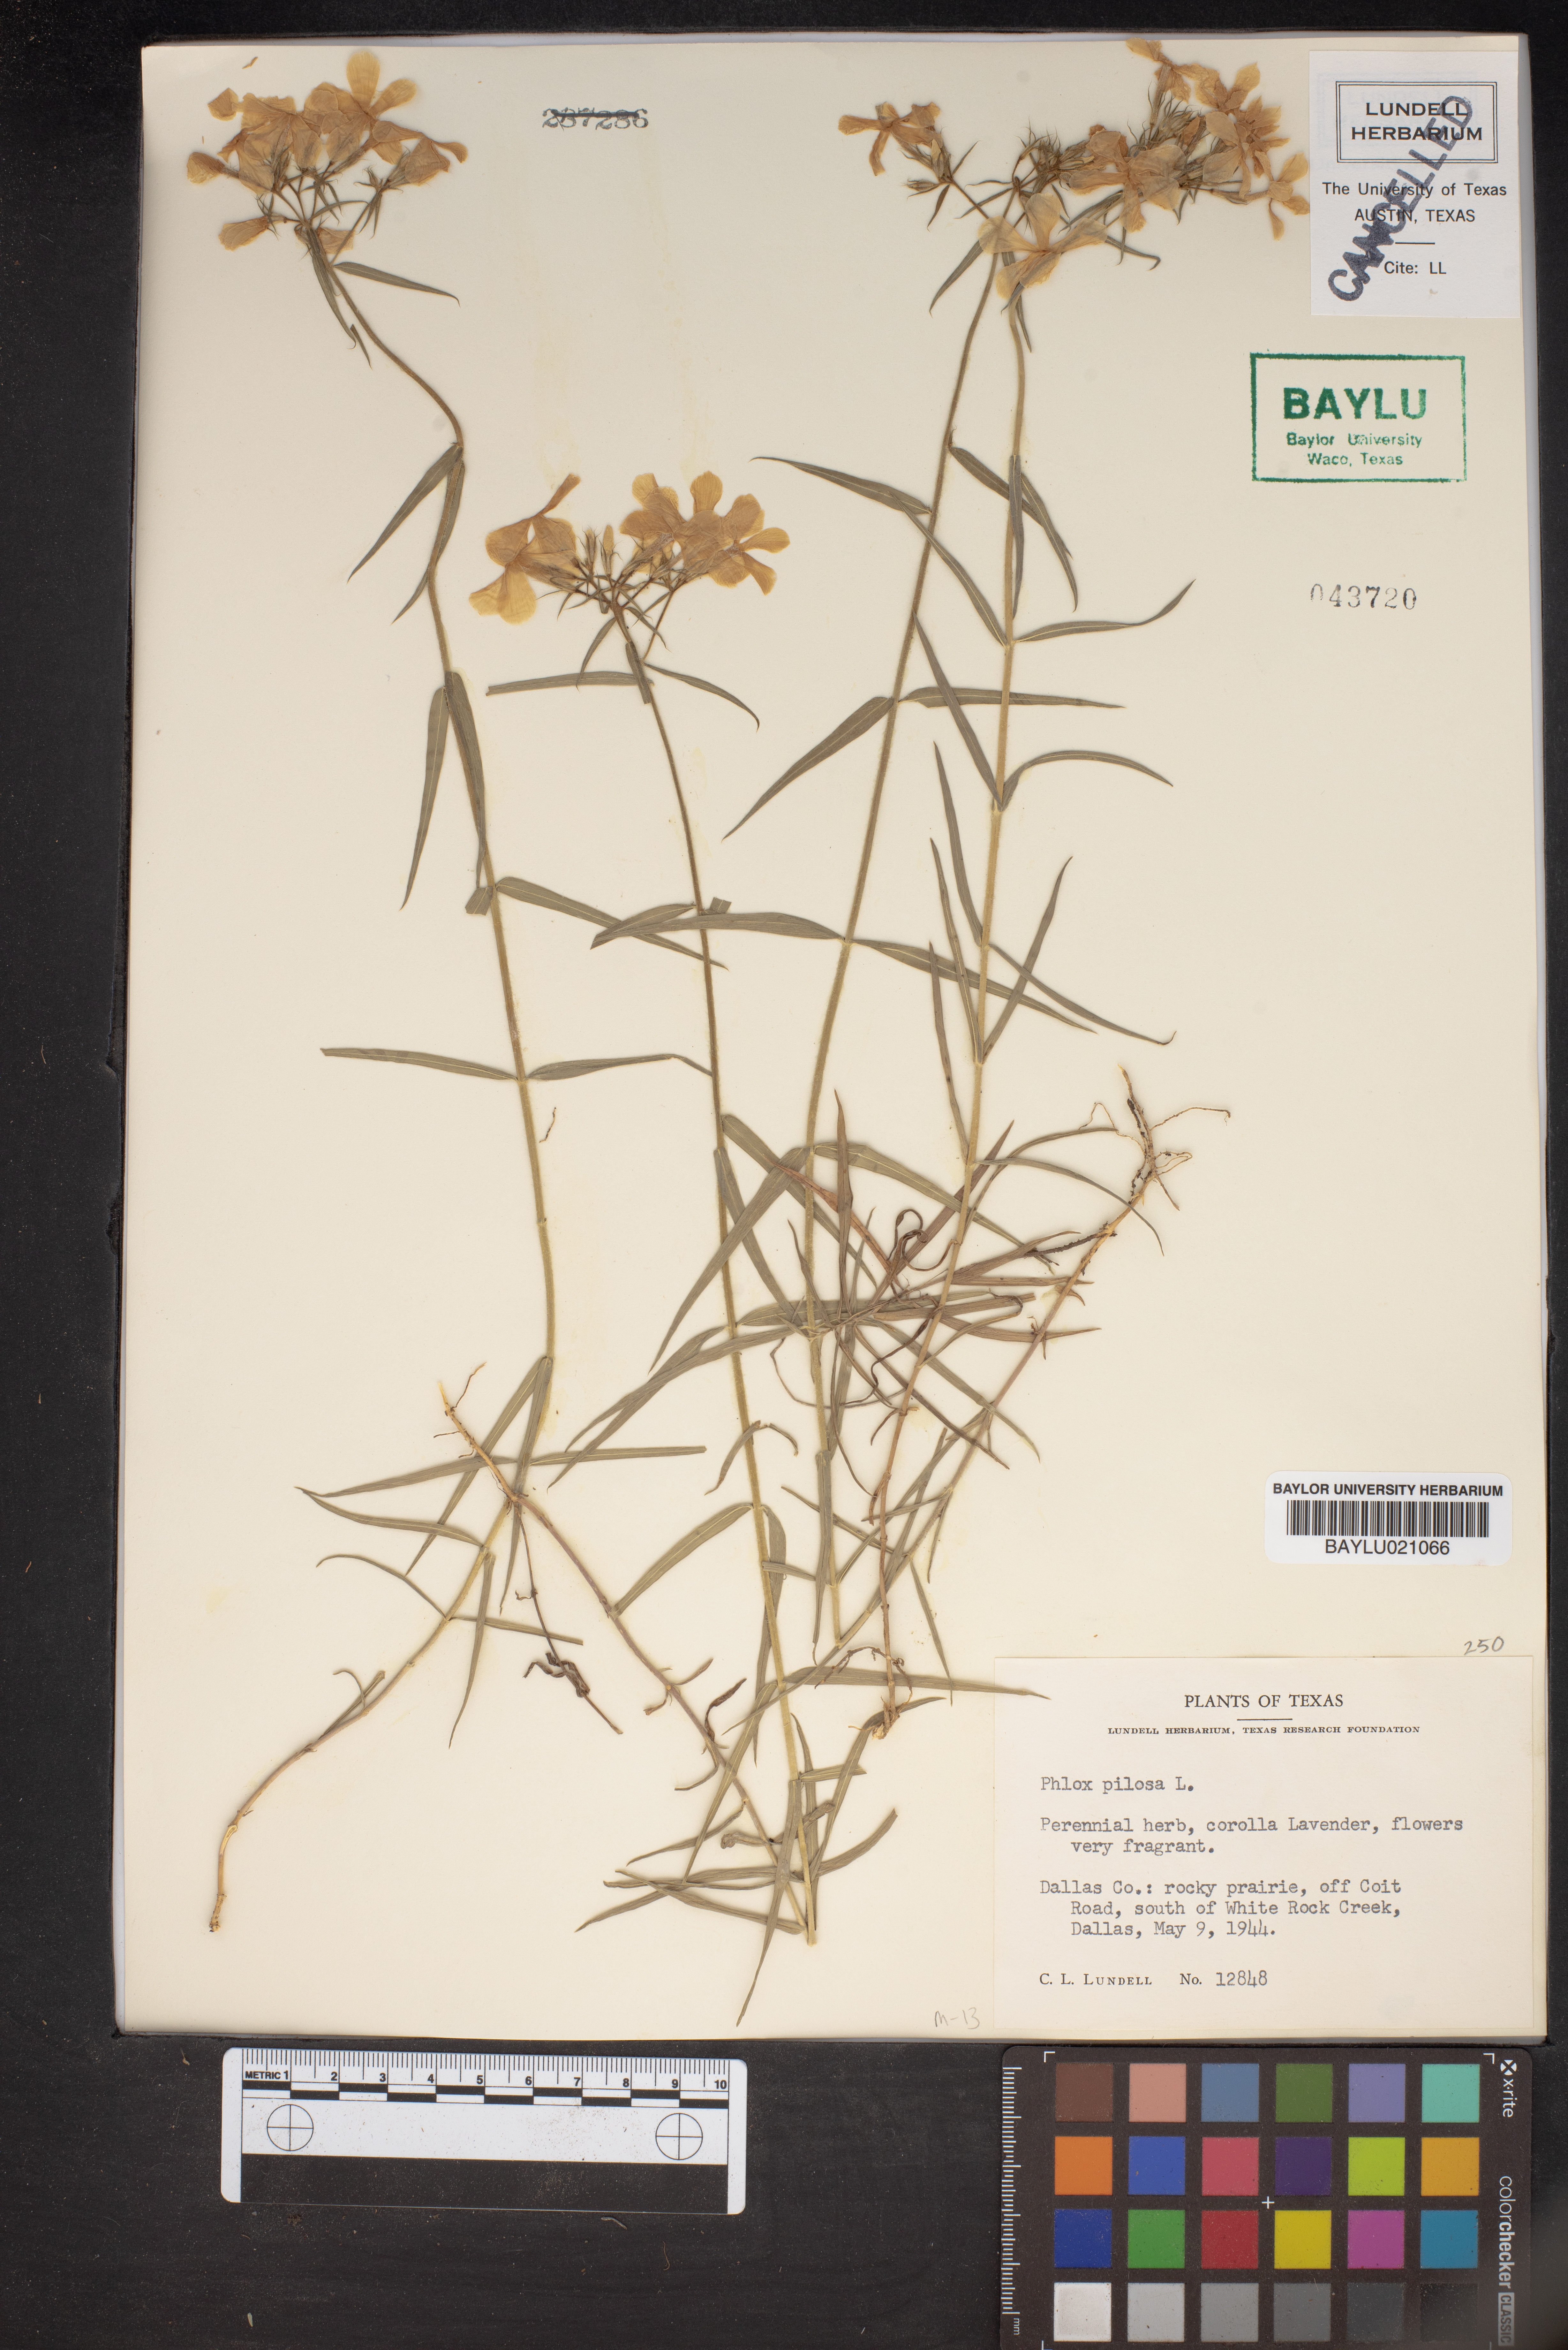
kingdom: Plantae
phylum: Tracheophyta
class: Magnoliopsida
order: Ericales
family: Polemoniaceae
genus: Phlox
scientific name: Phlox pilosa
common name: Prairie phlox
